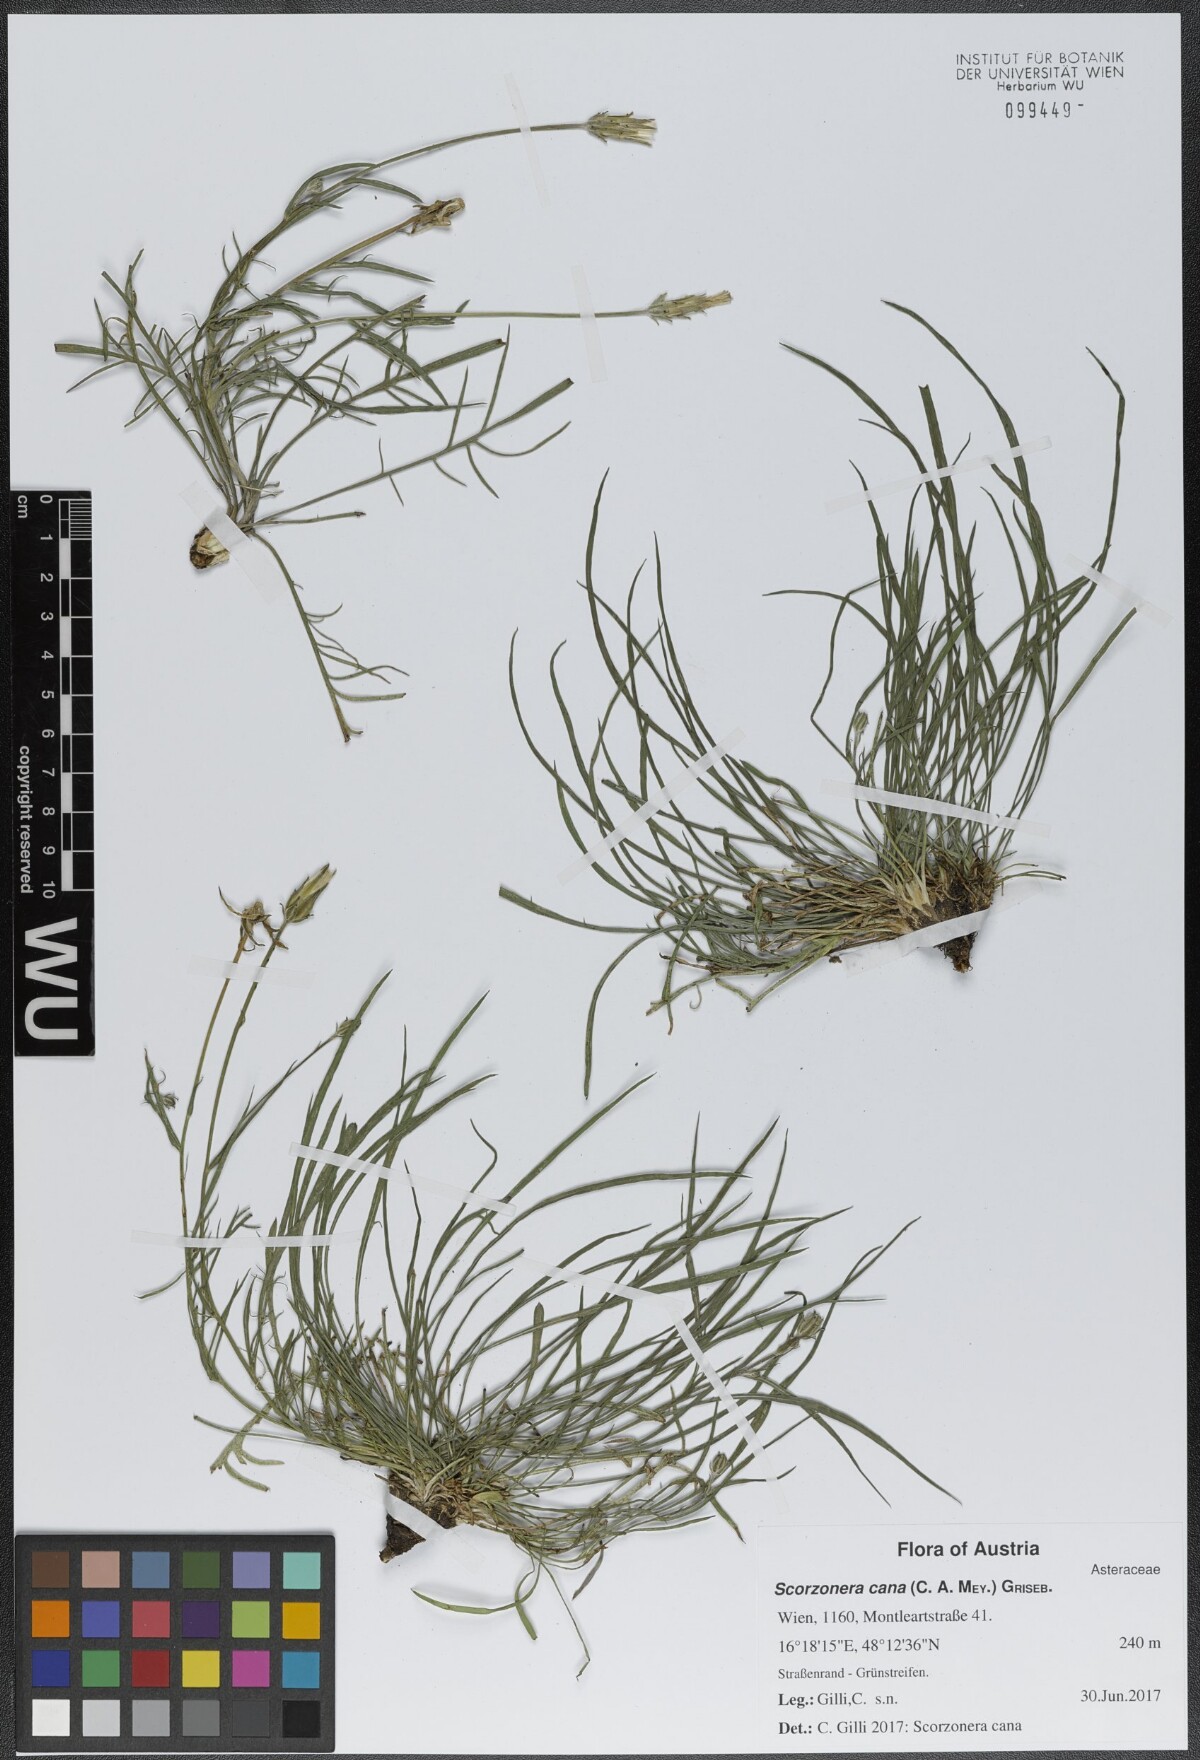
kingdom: Plantae
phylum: Tracheophyta
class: Magnoliopsida
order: Asterales
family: Asteraceae
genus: Scorzonera
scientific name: Scorzonera cana
